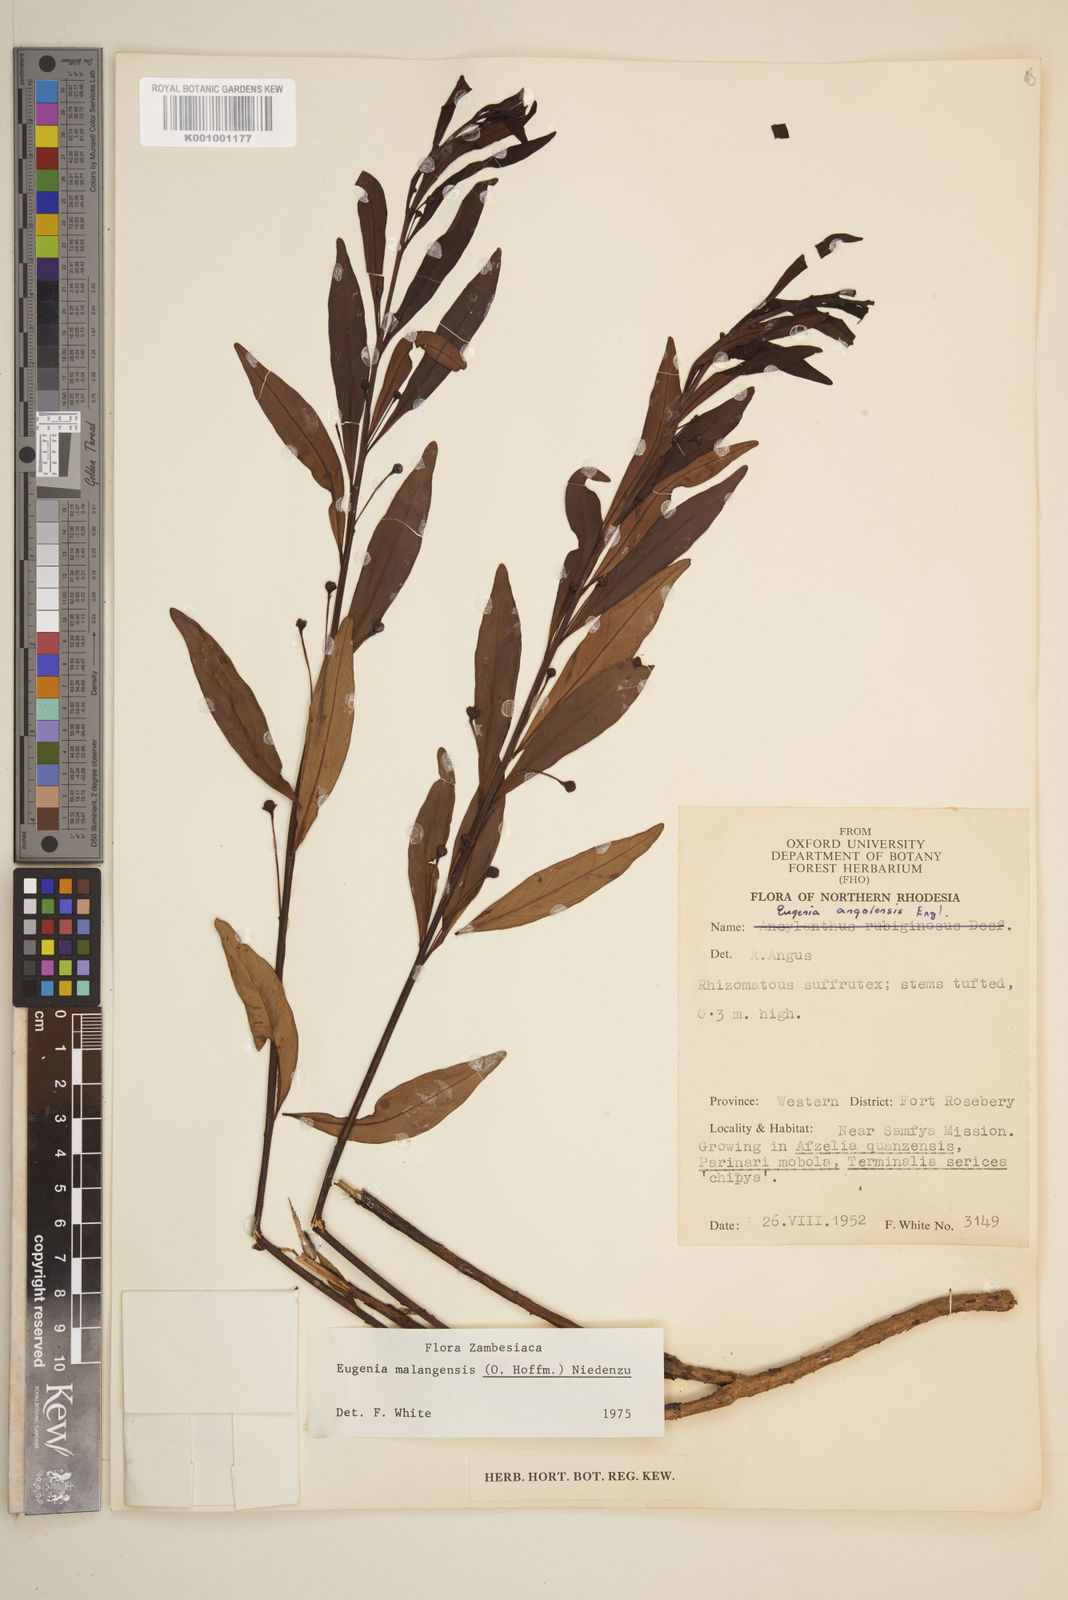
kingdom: Plantae
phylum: Tracheophyta
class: Magnoliopsida
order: Myrtales
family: Myrtaceae
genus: Eugenia
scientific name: Eugenia malangensis
